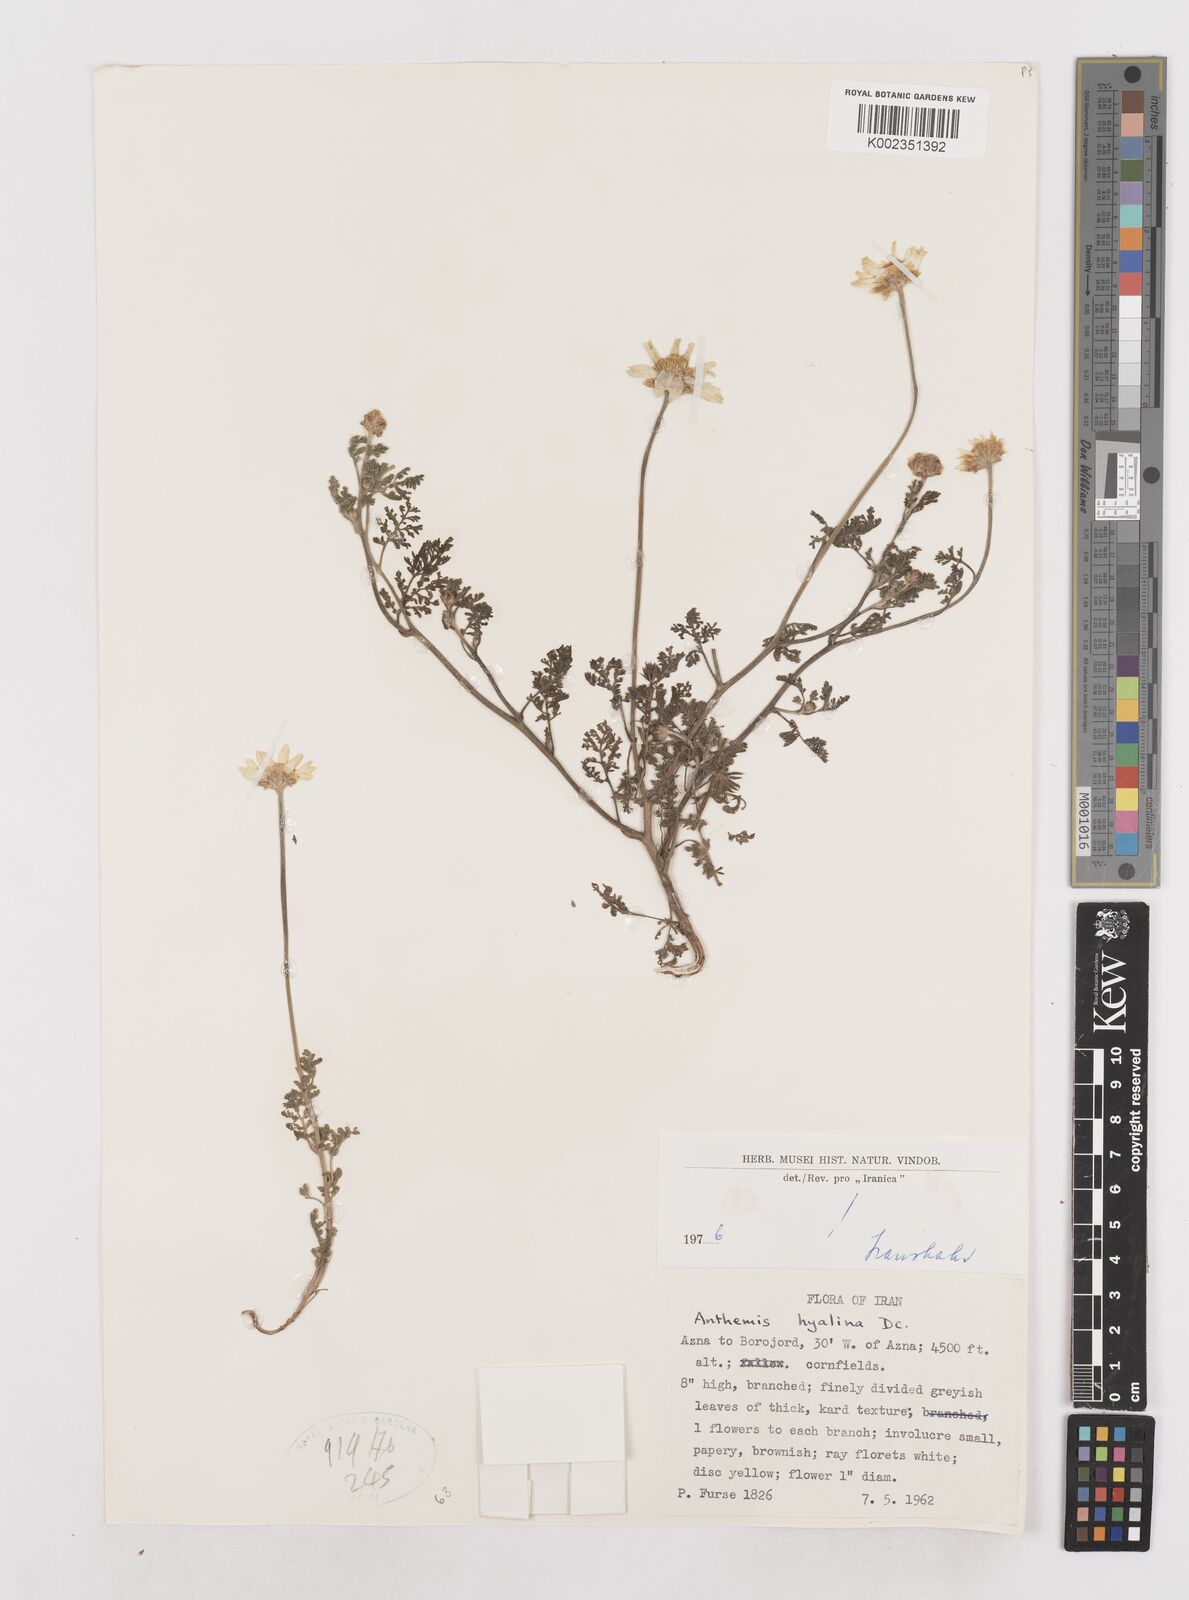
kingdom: Plantae
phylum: Tracheophyta
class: Magnoliopsida
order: Asterales
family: Asteraceae
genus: Anthemis
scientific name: Anthemis hyalina
